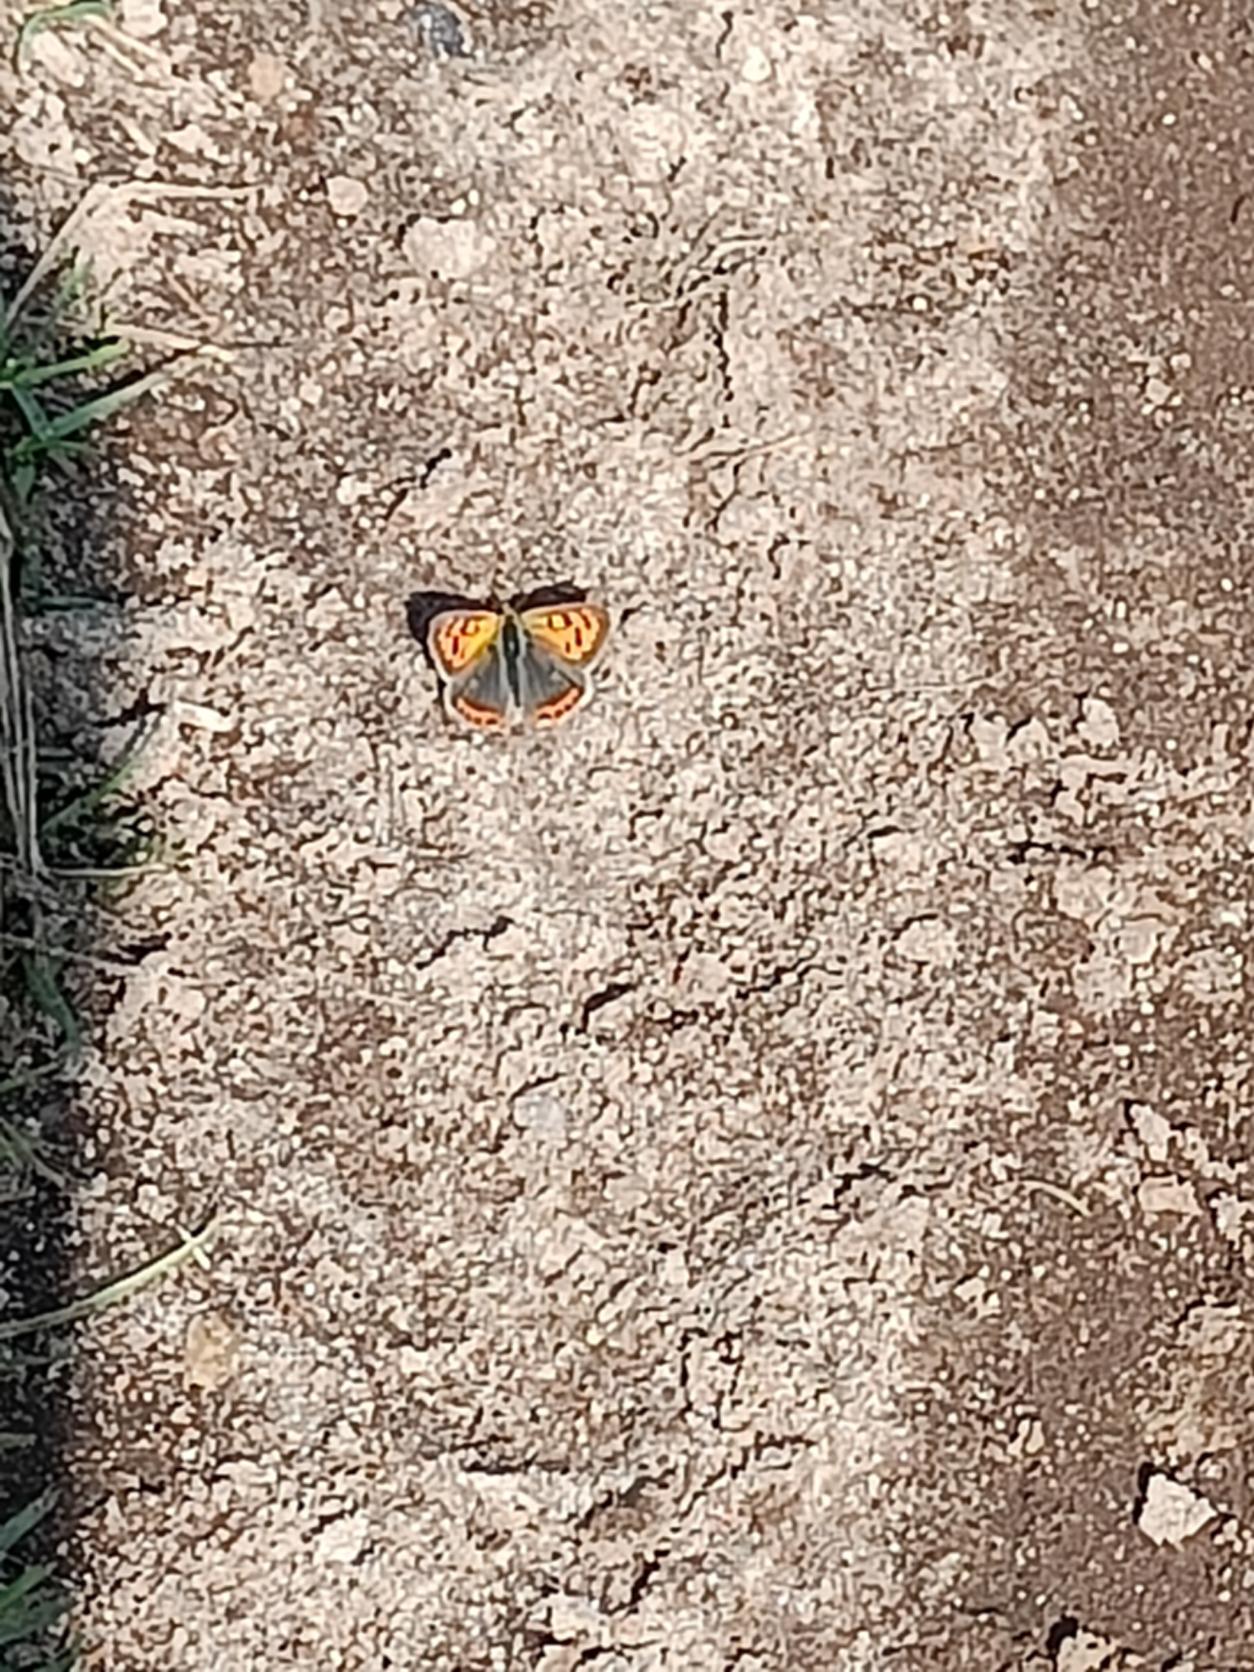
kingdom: Animalia
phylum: Arthropoda
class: Insecta
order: Lepidoptera
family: Lycaenidae
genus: Lycaena
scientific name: Lycaena phlaeas
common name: Lille ildfugl
